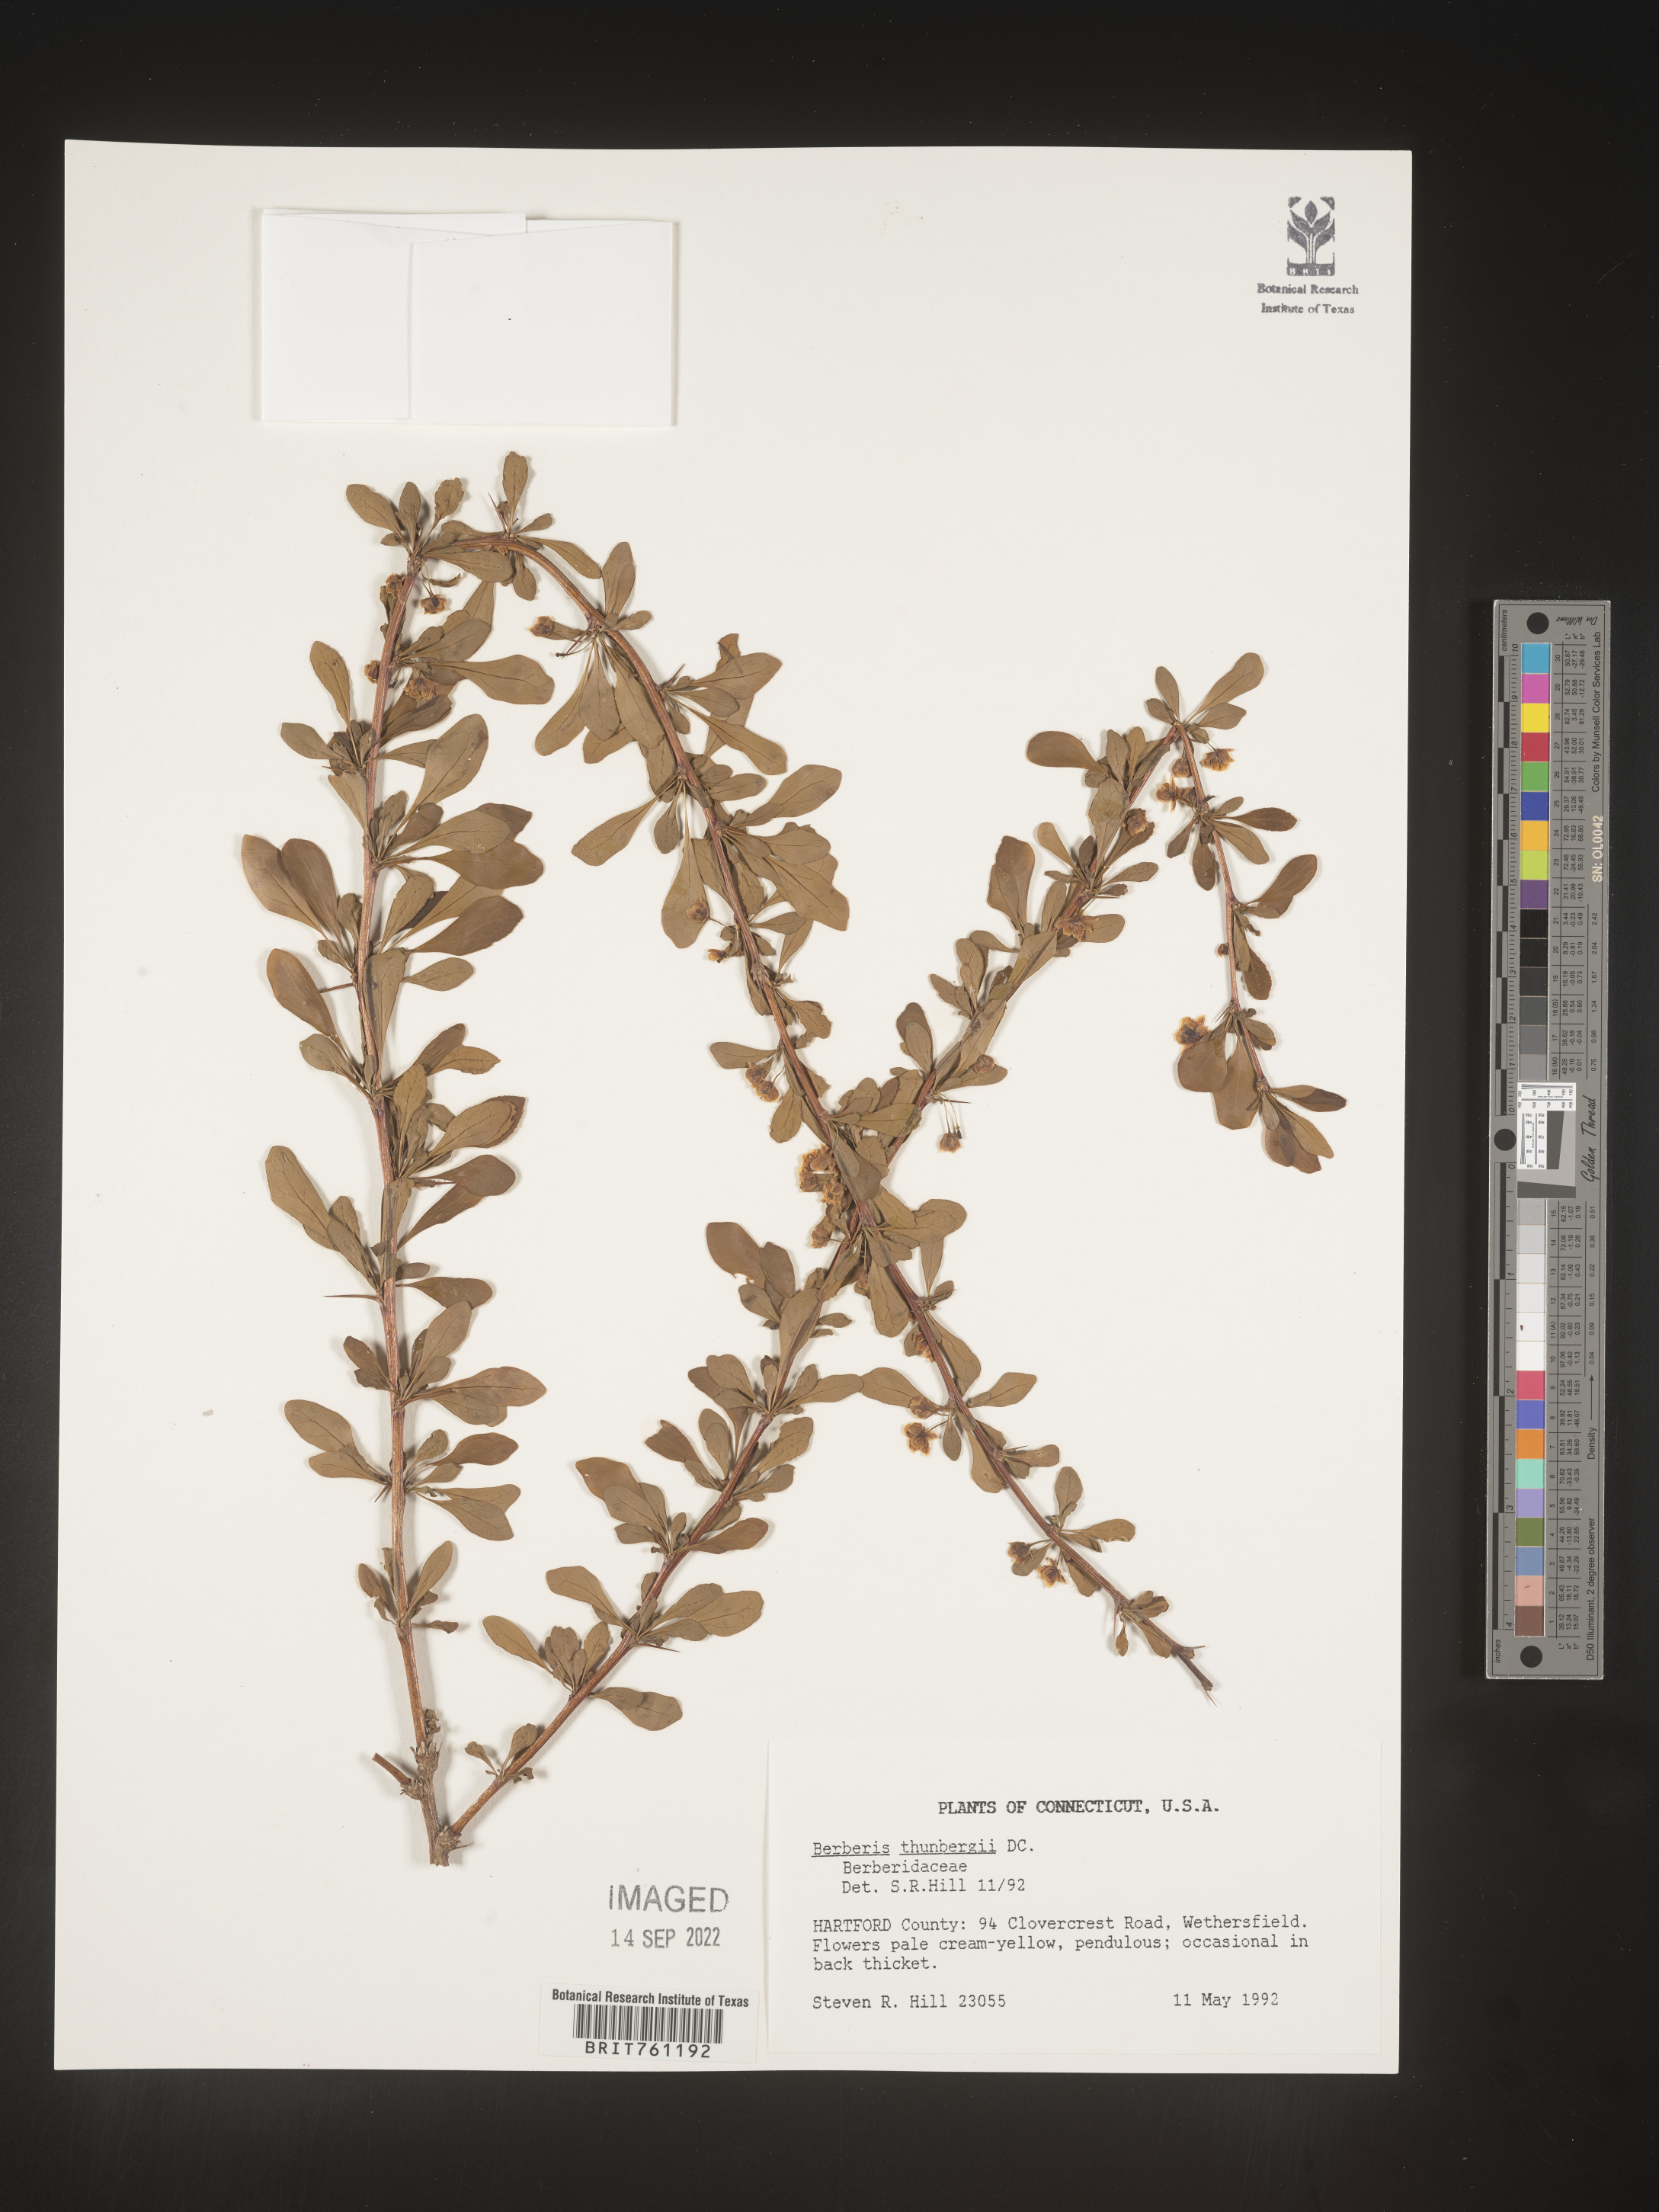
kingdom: Plantae
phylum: Tracheophyta
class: Magnoliopsida
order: Ranunculales
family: Berberidaceae
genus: Mahonia
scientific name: Mahonia
